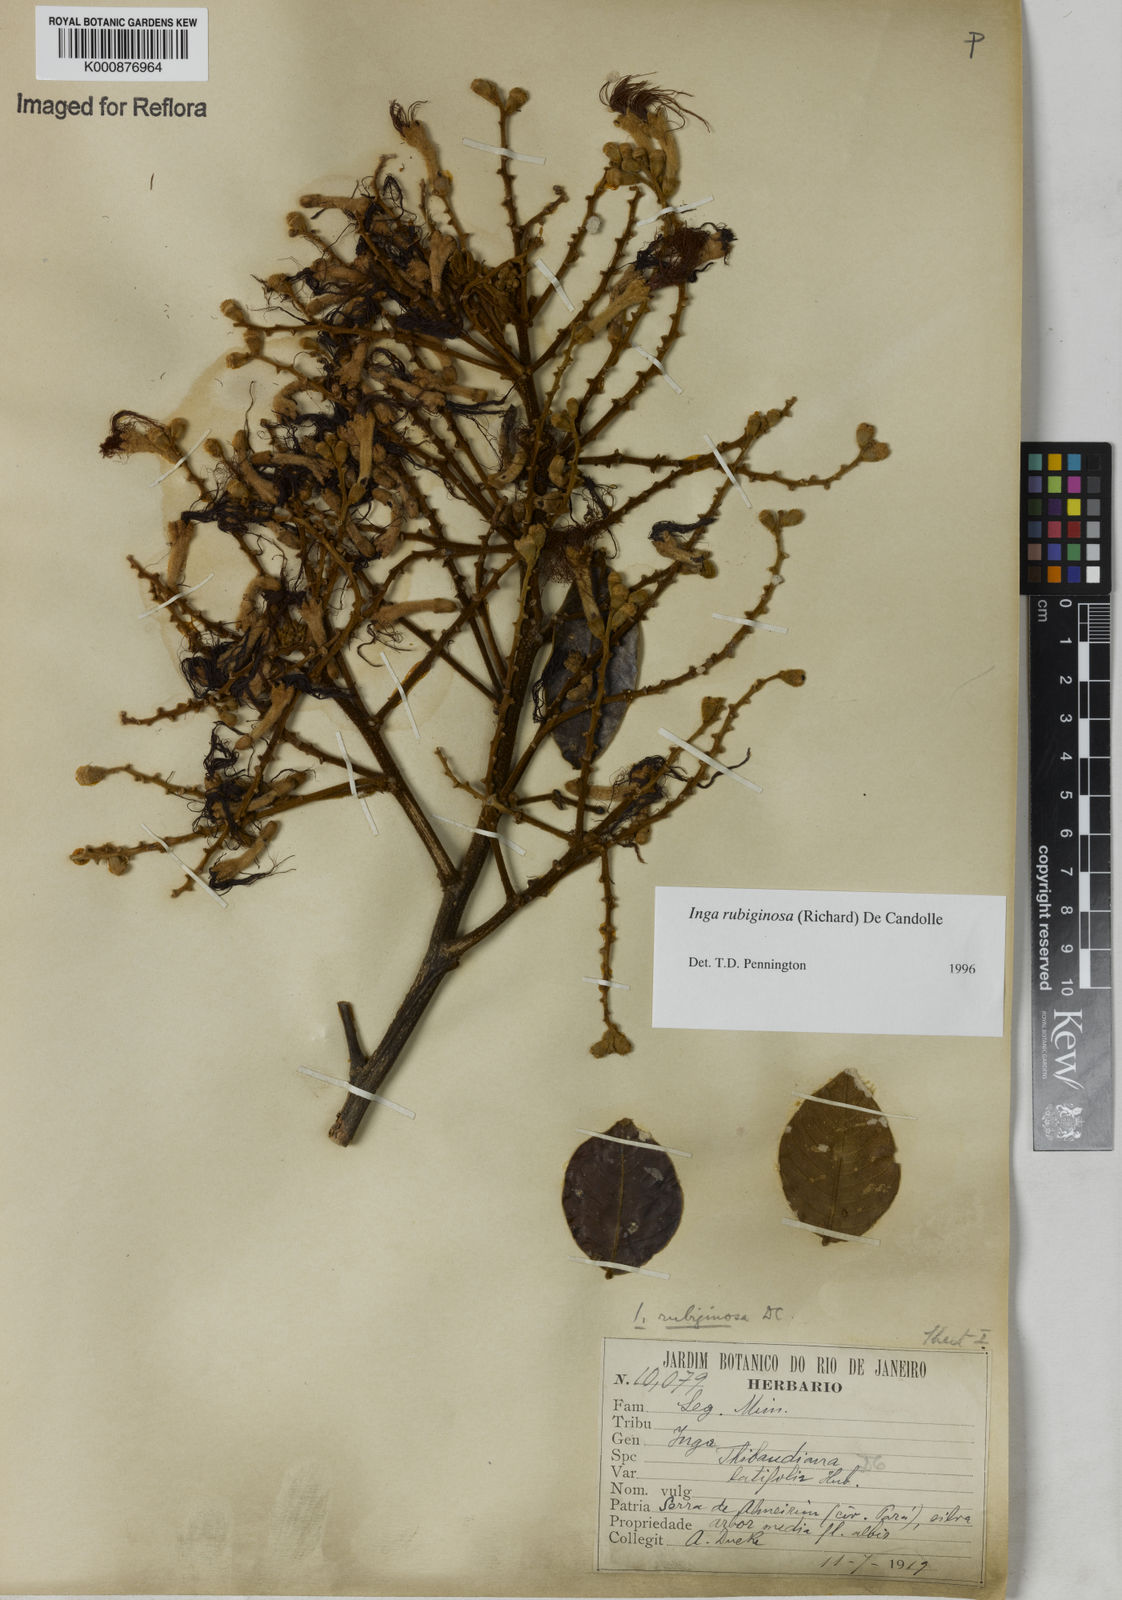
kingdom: Plantae
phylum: Tracheophyta
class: Magnoliopsida
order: Fabales
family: Fabaceae
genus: Inga
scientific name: Inga rubiginosa
